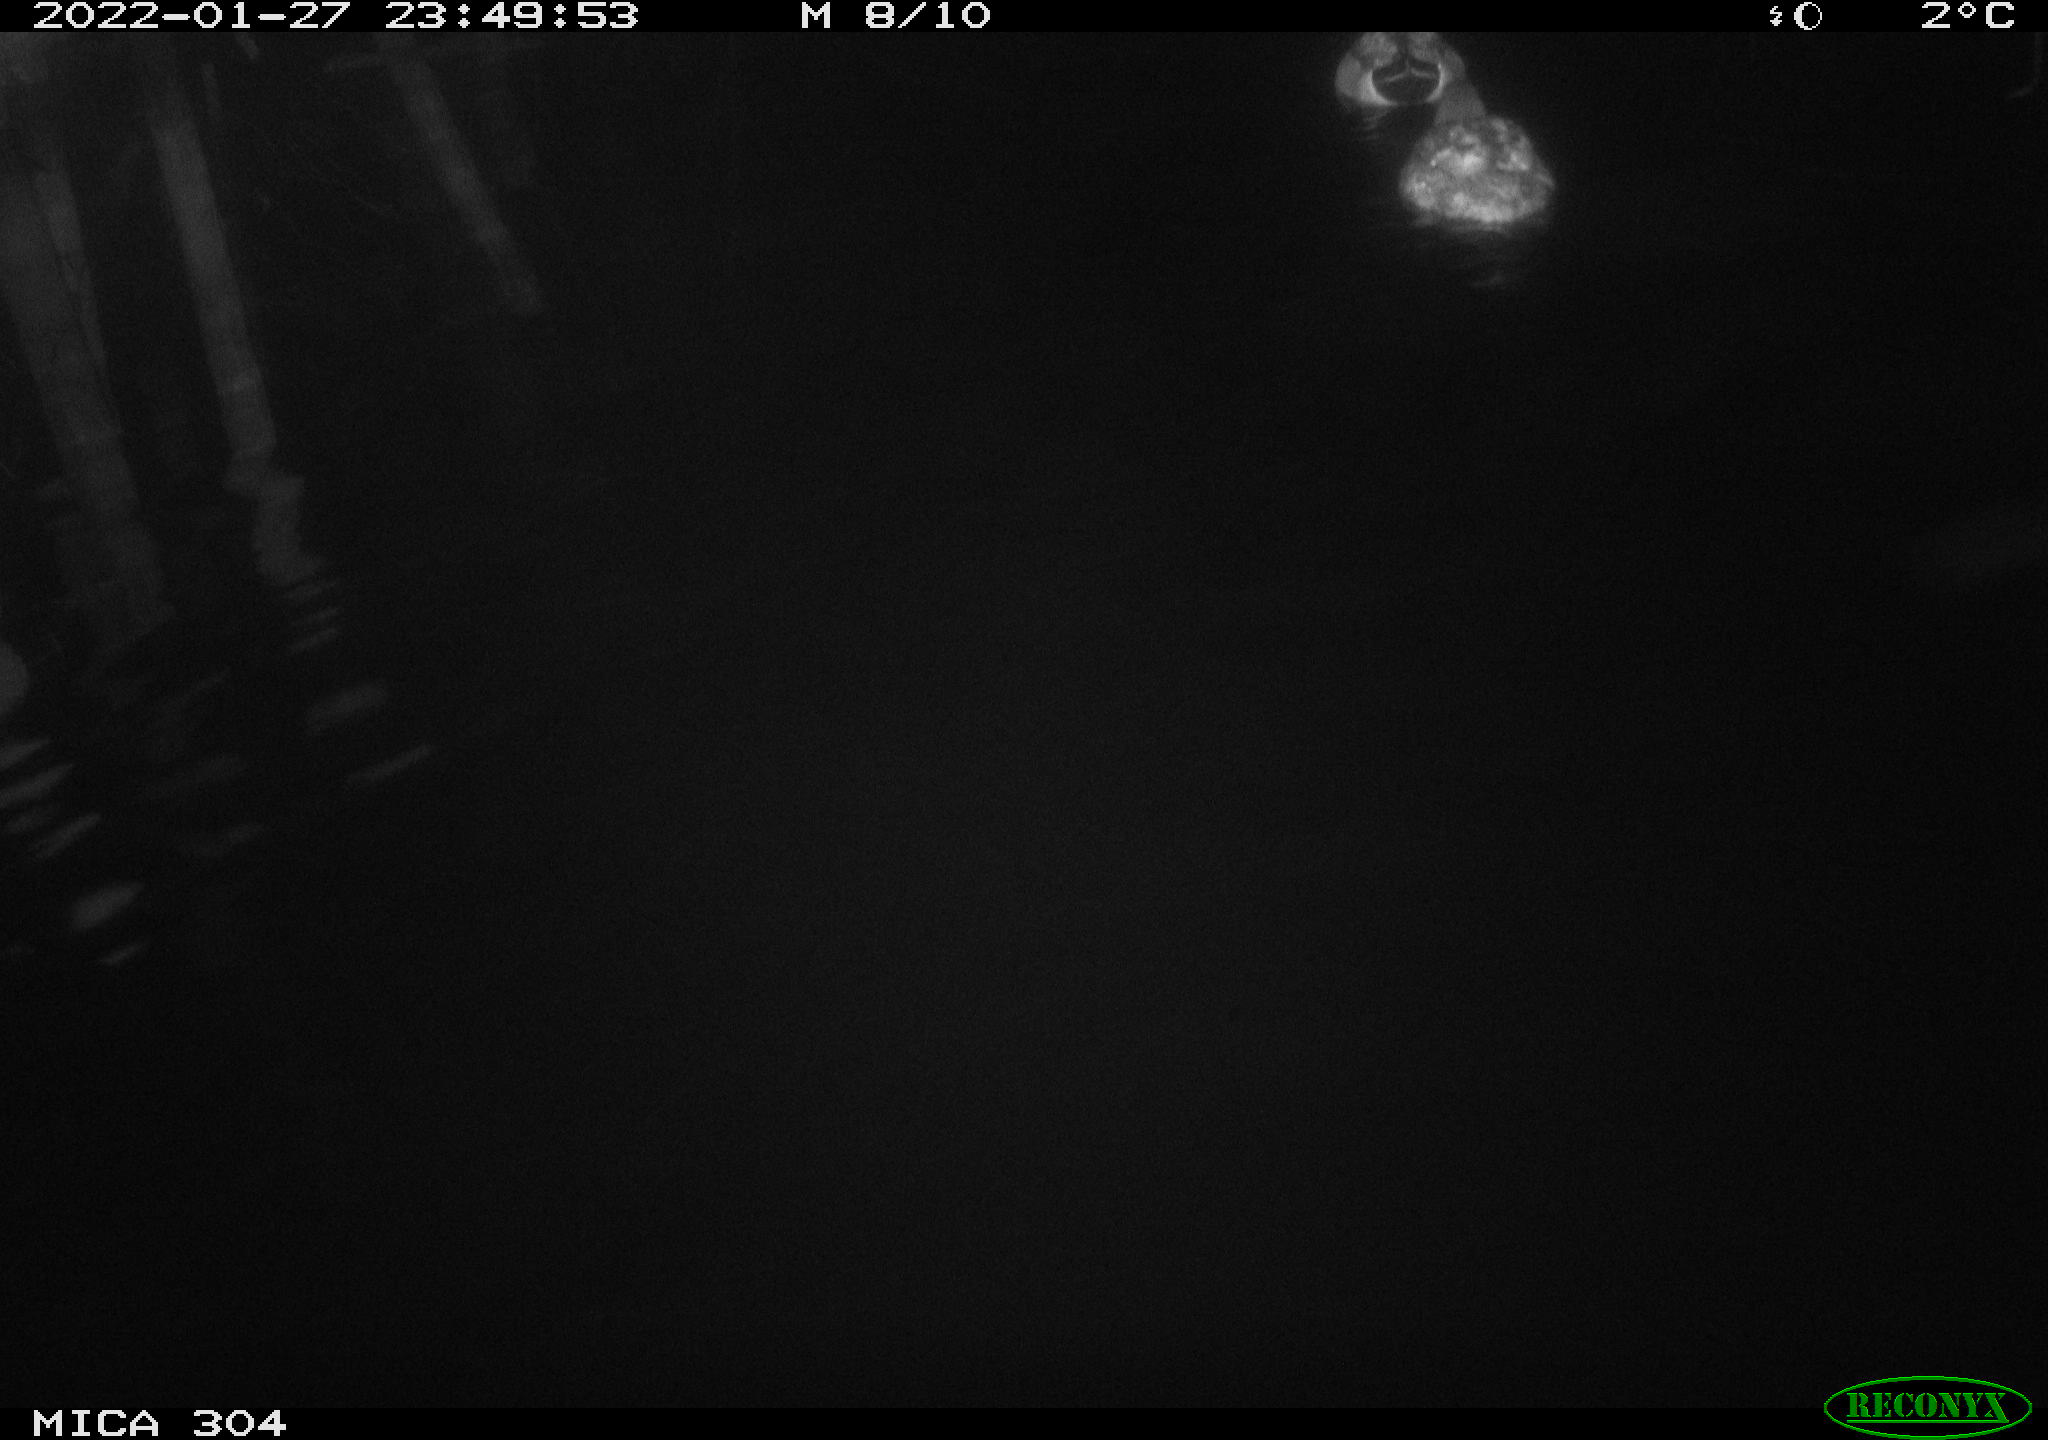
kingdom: Animalia
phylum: Chordata
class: Aves
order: Anseriformes
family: Anatidae
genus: Anas
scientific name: Anas
